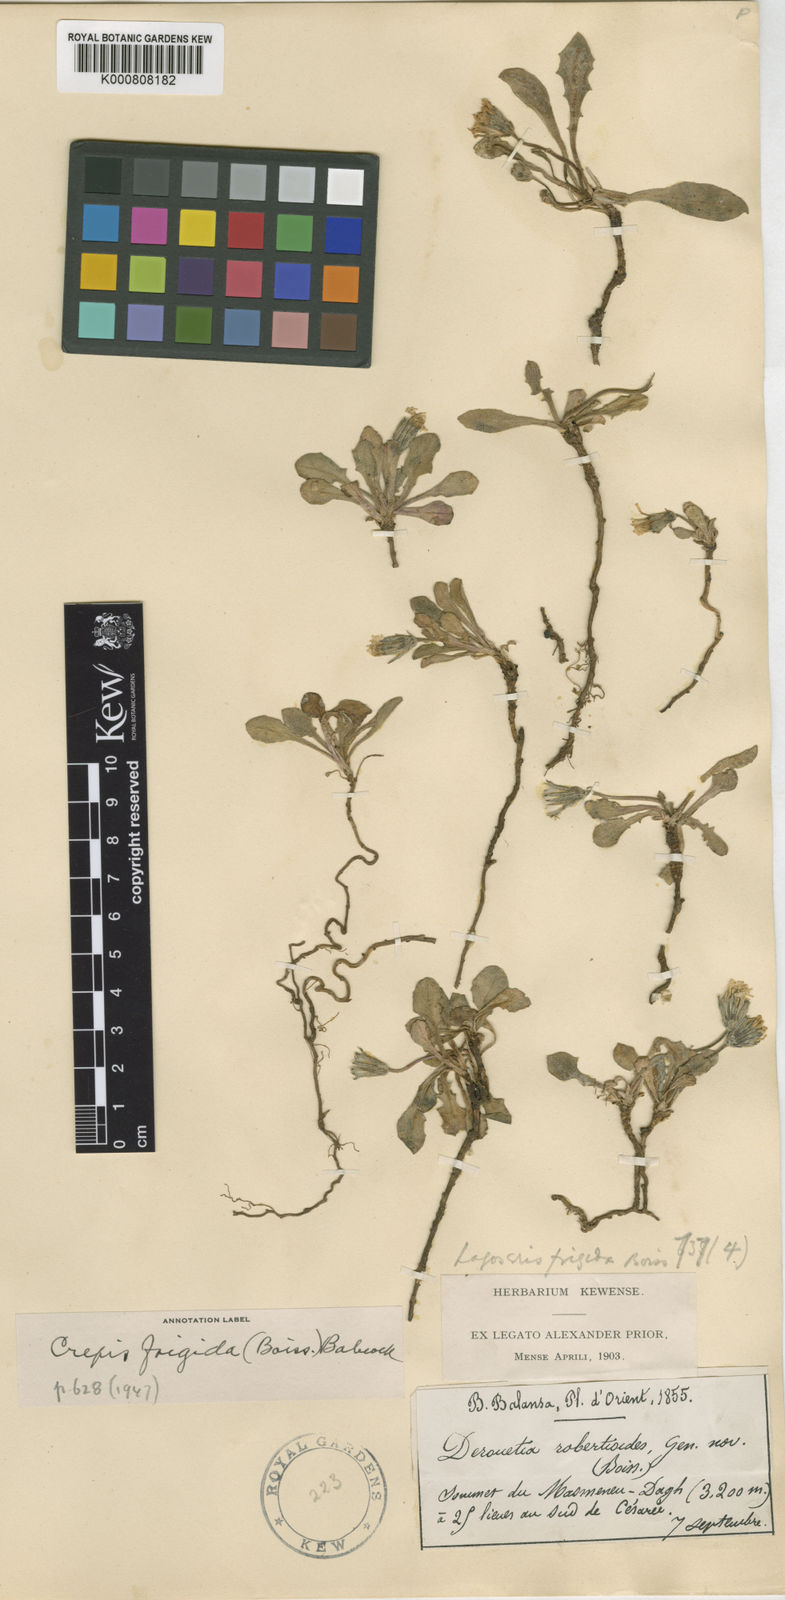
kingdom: Plantae
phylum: Tracheophyta
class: Magnoliopsida
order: Asterales
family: Asteraceae
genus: Crepis
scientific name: Crepis frigida
